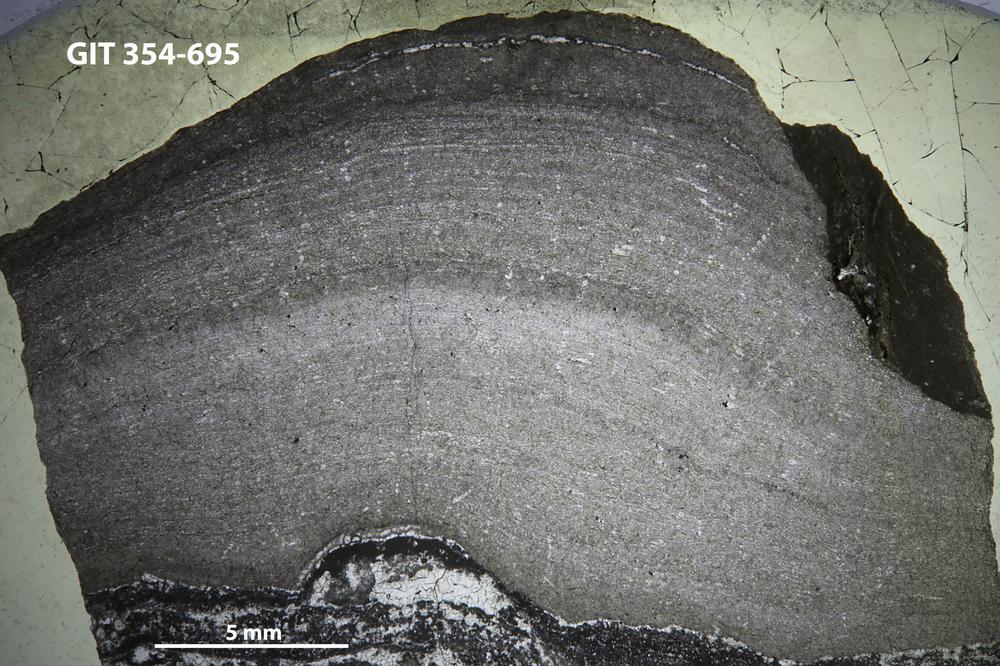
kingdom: Animalia
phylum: Porifera
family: Densastromatidae
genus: Araneosustroma
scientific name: Araneosustroma
